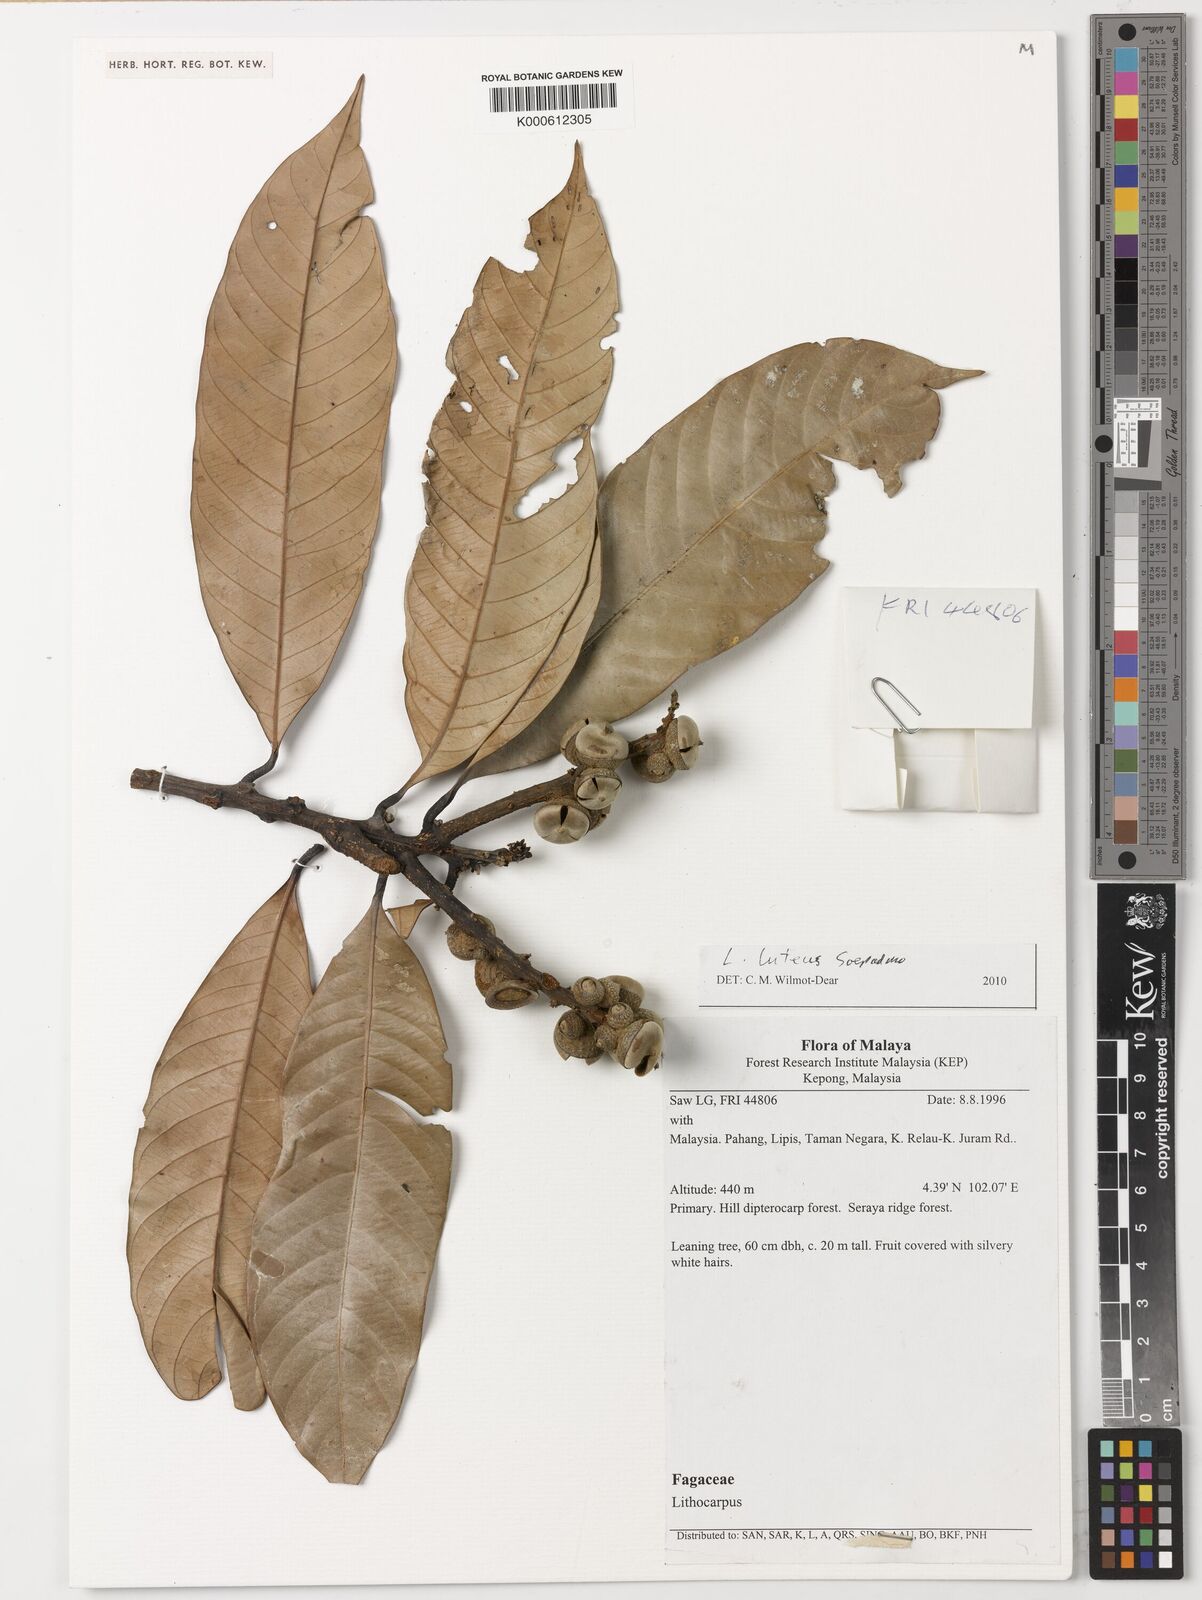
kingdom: Plantae
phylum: Tracheophyta
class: Magnoliopsida
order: Fagales
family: Fagaceae
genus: Lithocarpus
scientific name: Lithocarpus luteus
